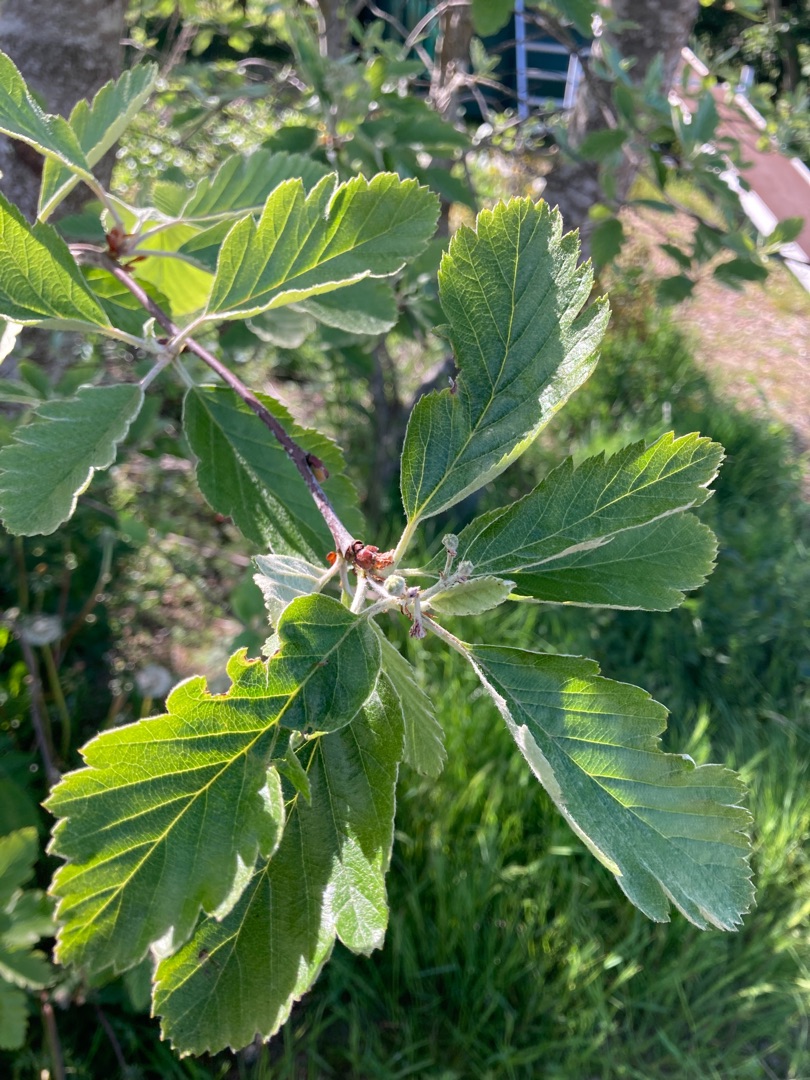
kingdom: Plantae
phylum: Tracheophyta
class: Magnoliopsida
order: Rosales
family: Rosaceae
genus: Scandosorbus
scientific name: Scandosorbus intermedia
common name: Selje-røn
